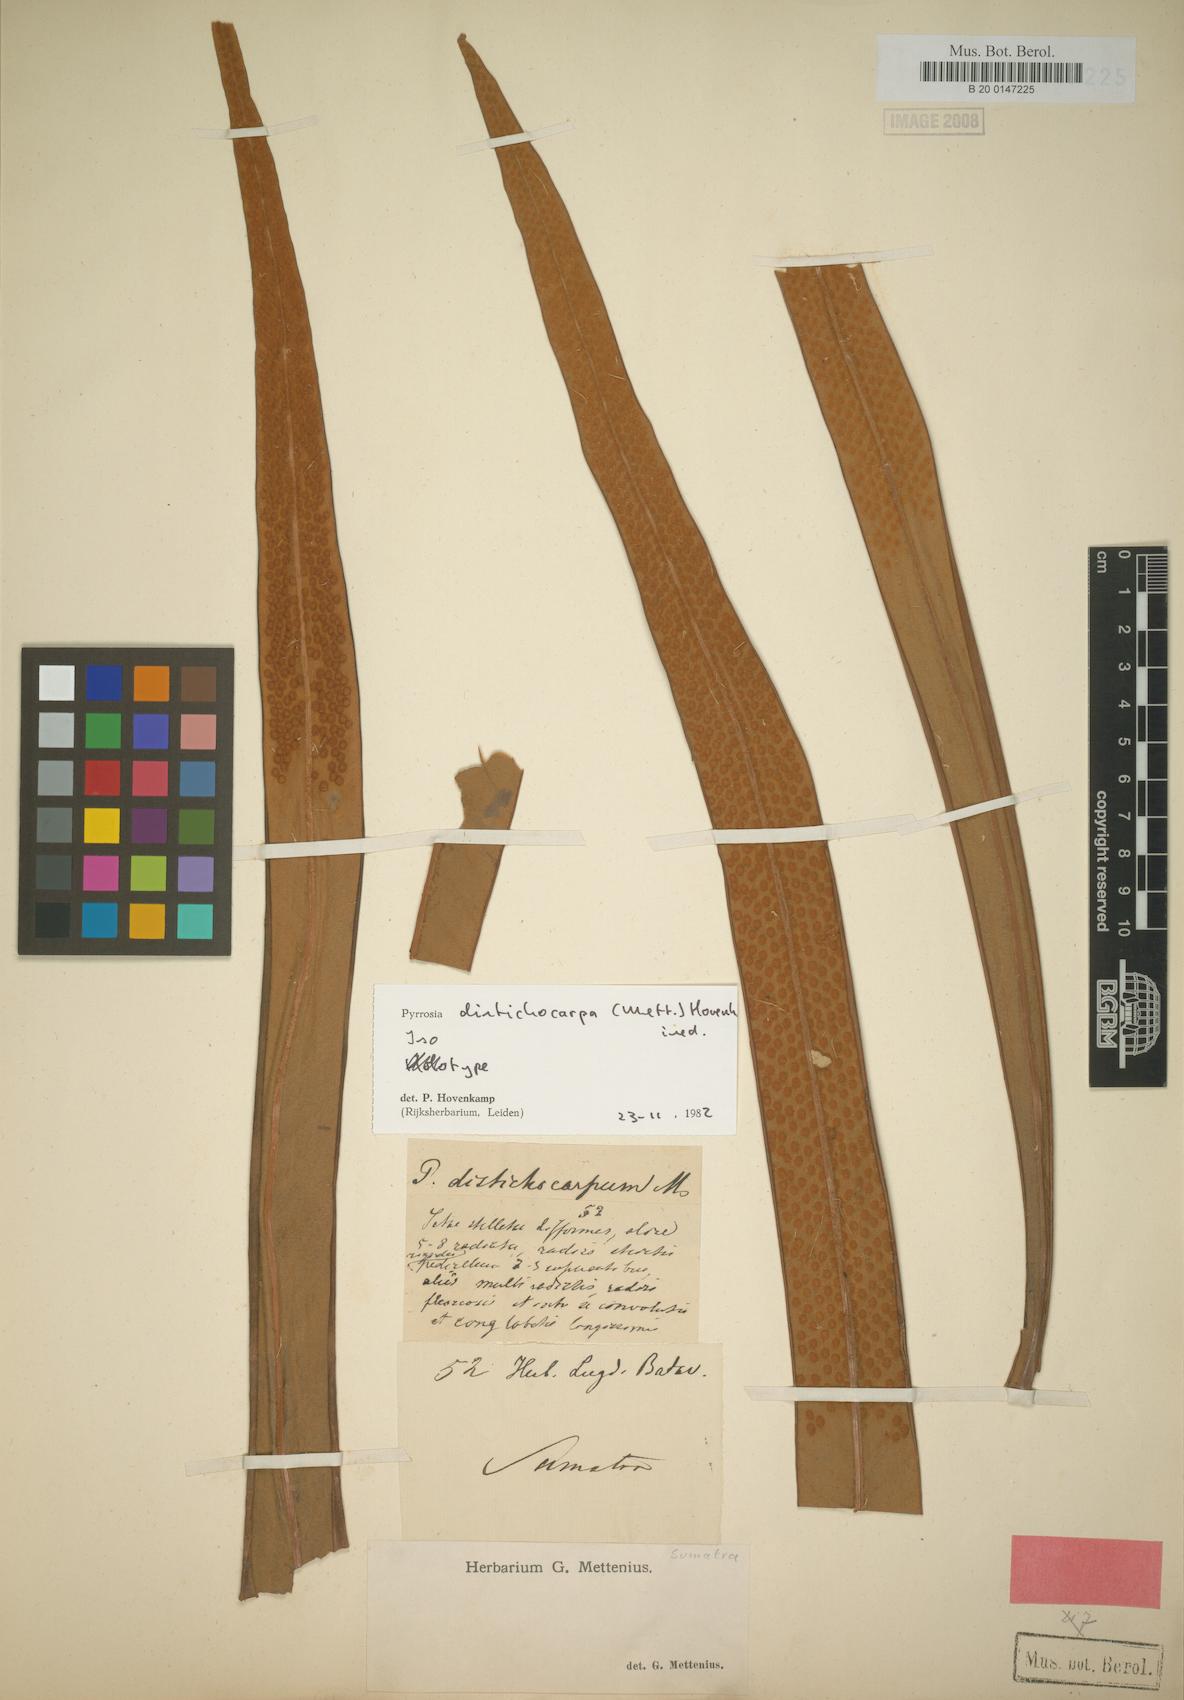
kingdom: Plantae
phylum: Tracheophyta
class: Polypodiopsida
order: Polypodiales
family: Polypodiaceae
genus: Pyrrosia
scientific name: Pyrrosia distichocarpa
